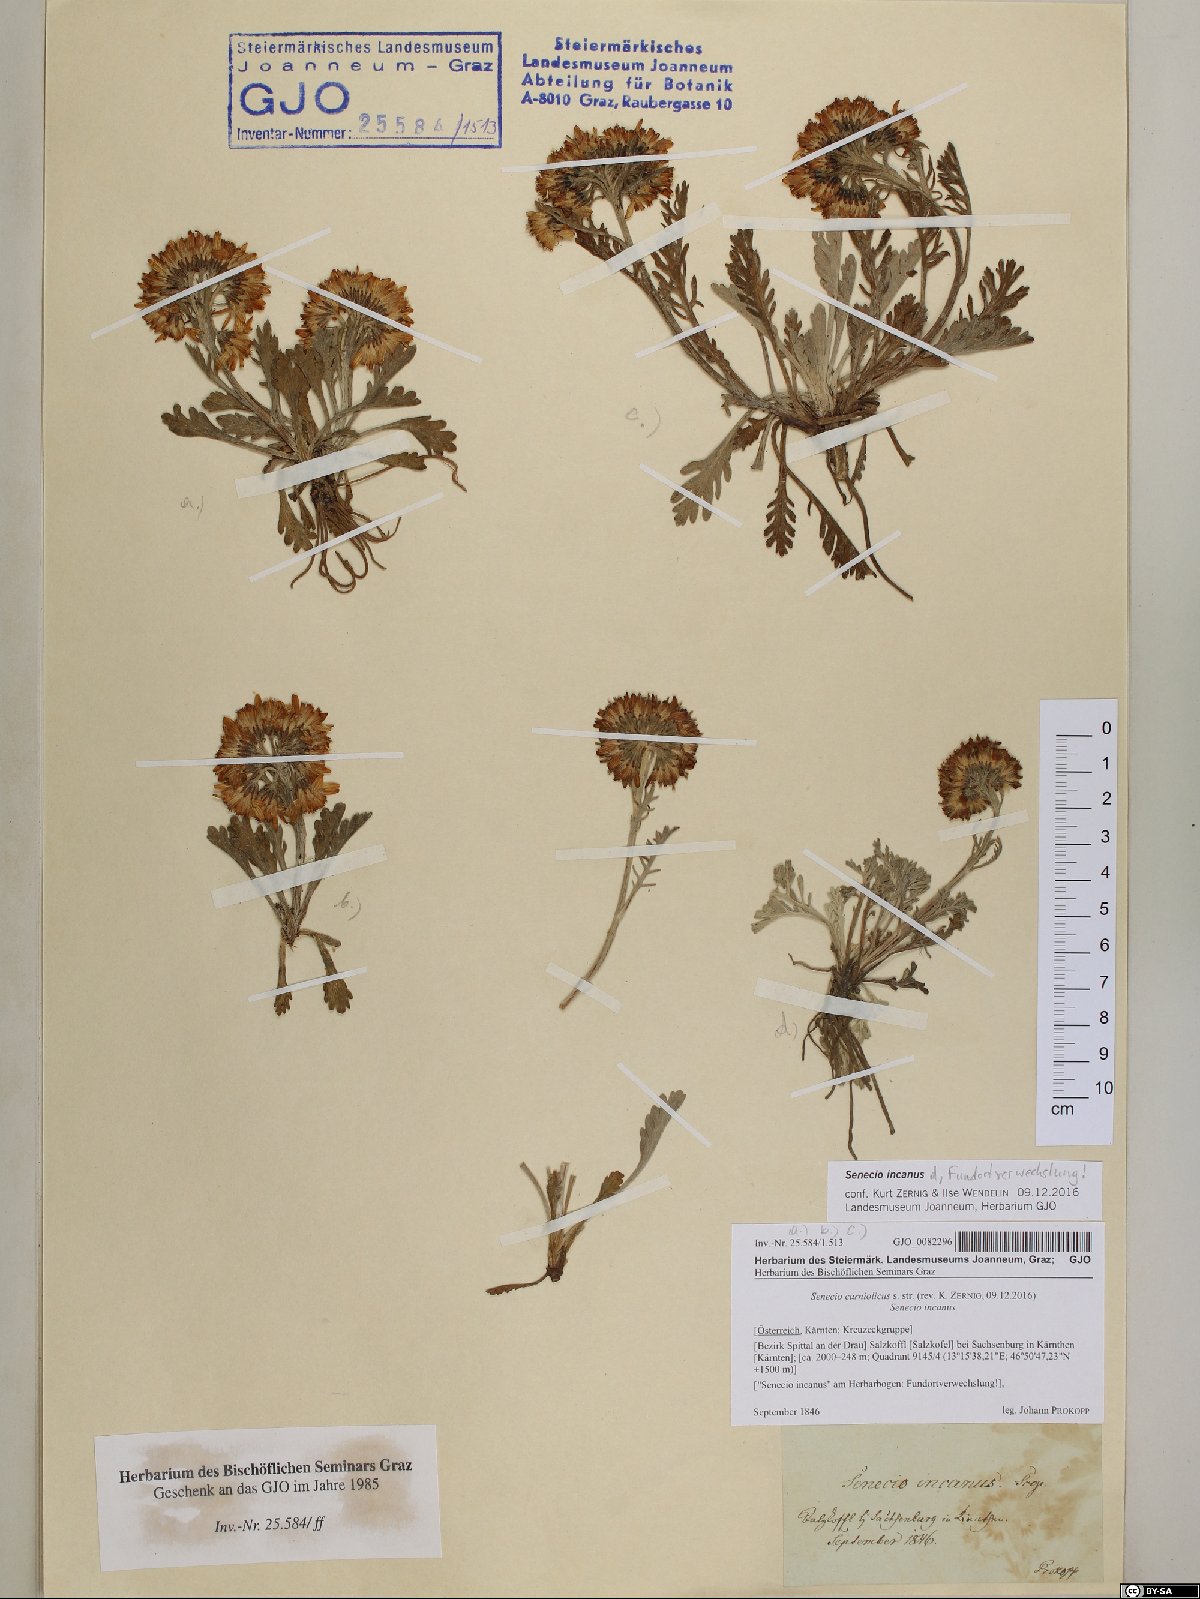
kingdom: Plantae
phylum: Tracheophyta
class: Magnoliopsida
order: Asterales
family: Asteraceae
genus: Jacobaea
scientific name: Jacobaea carniolica
